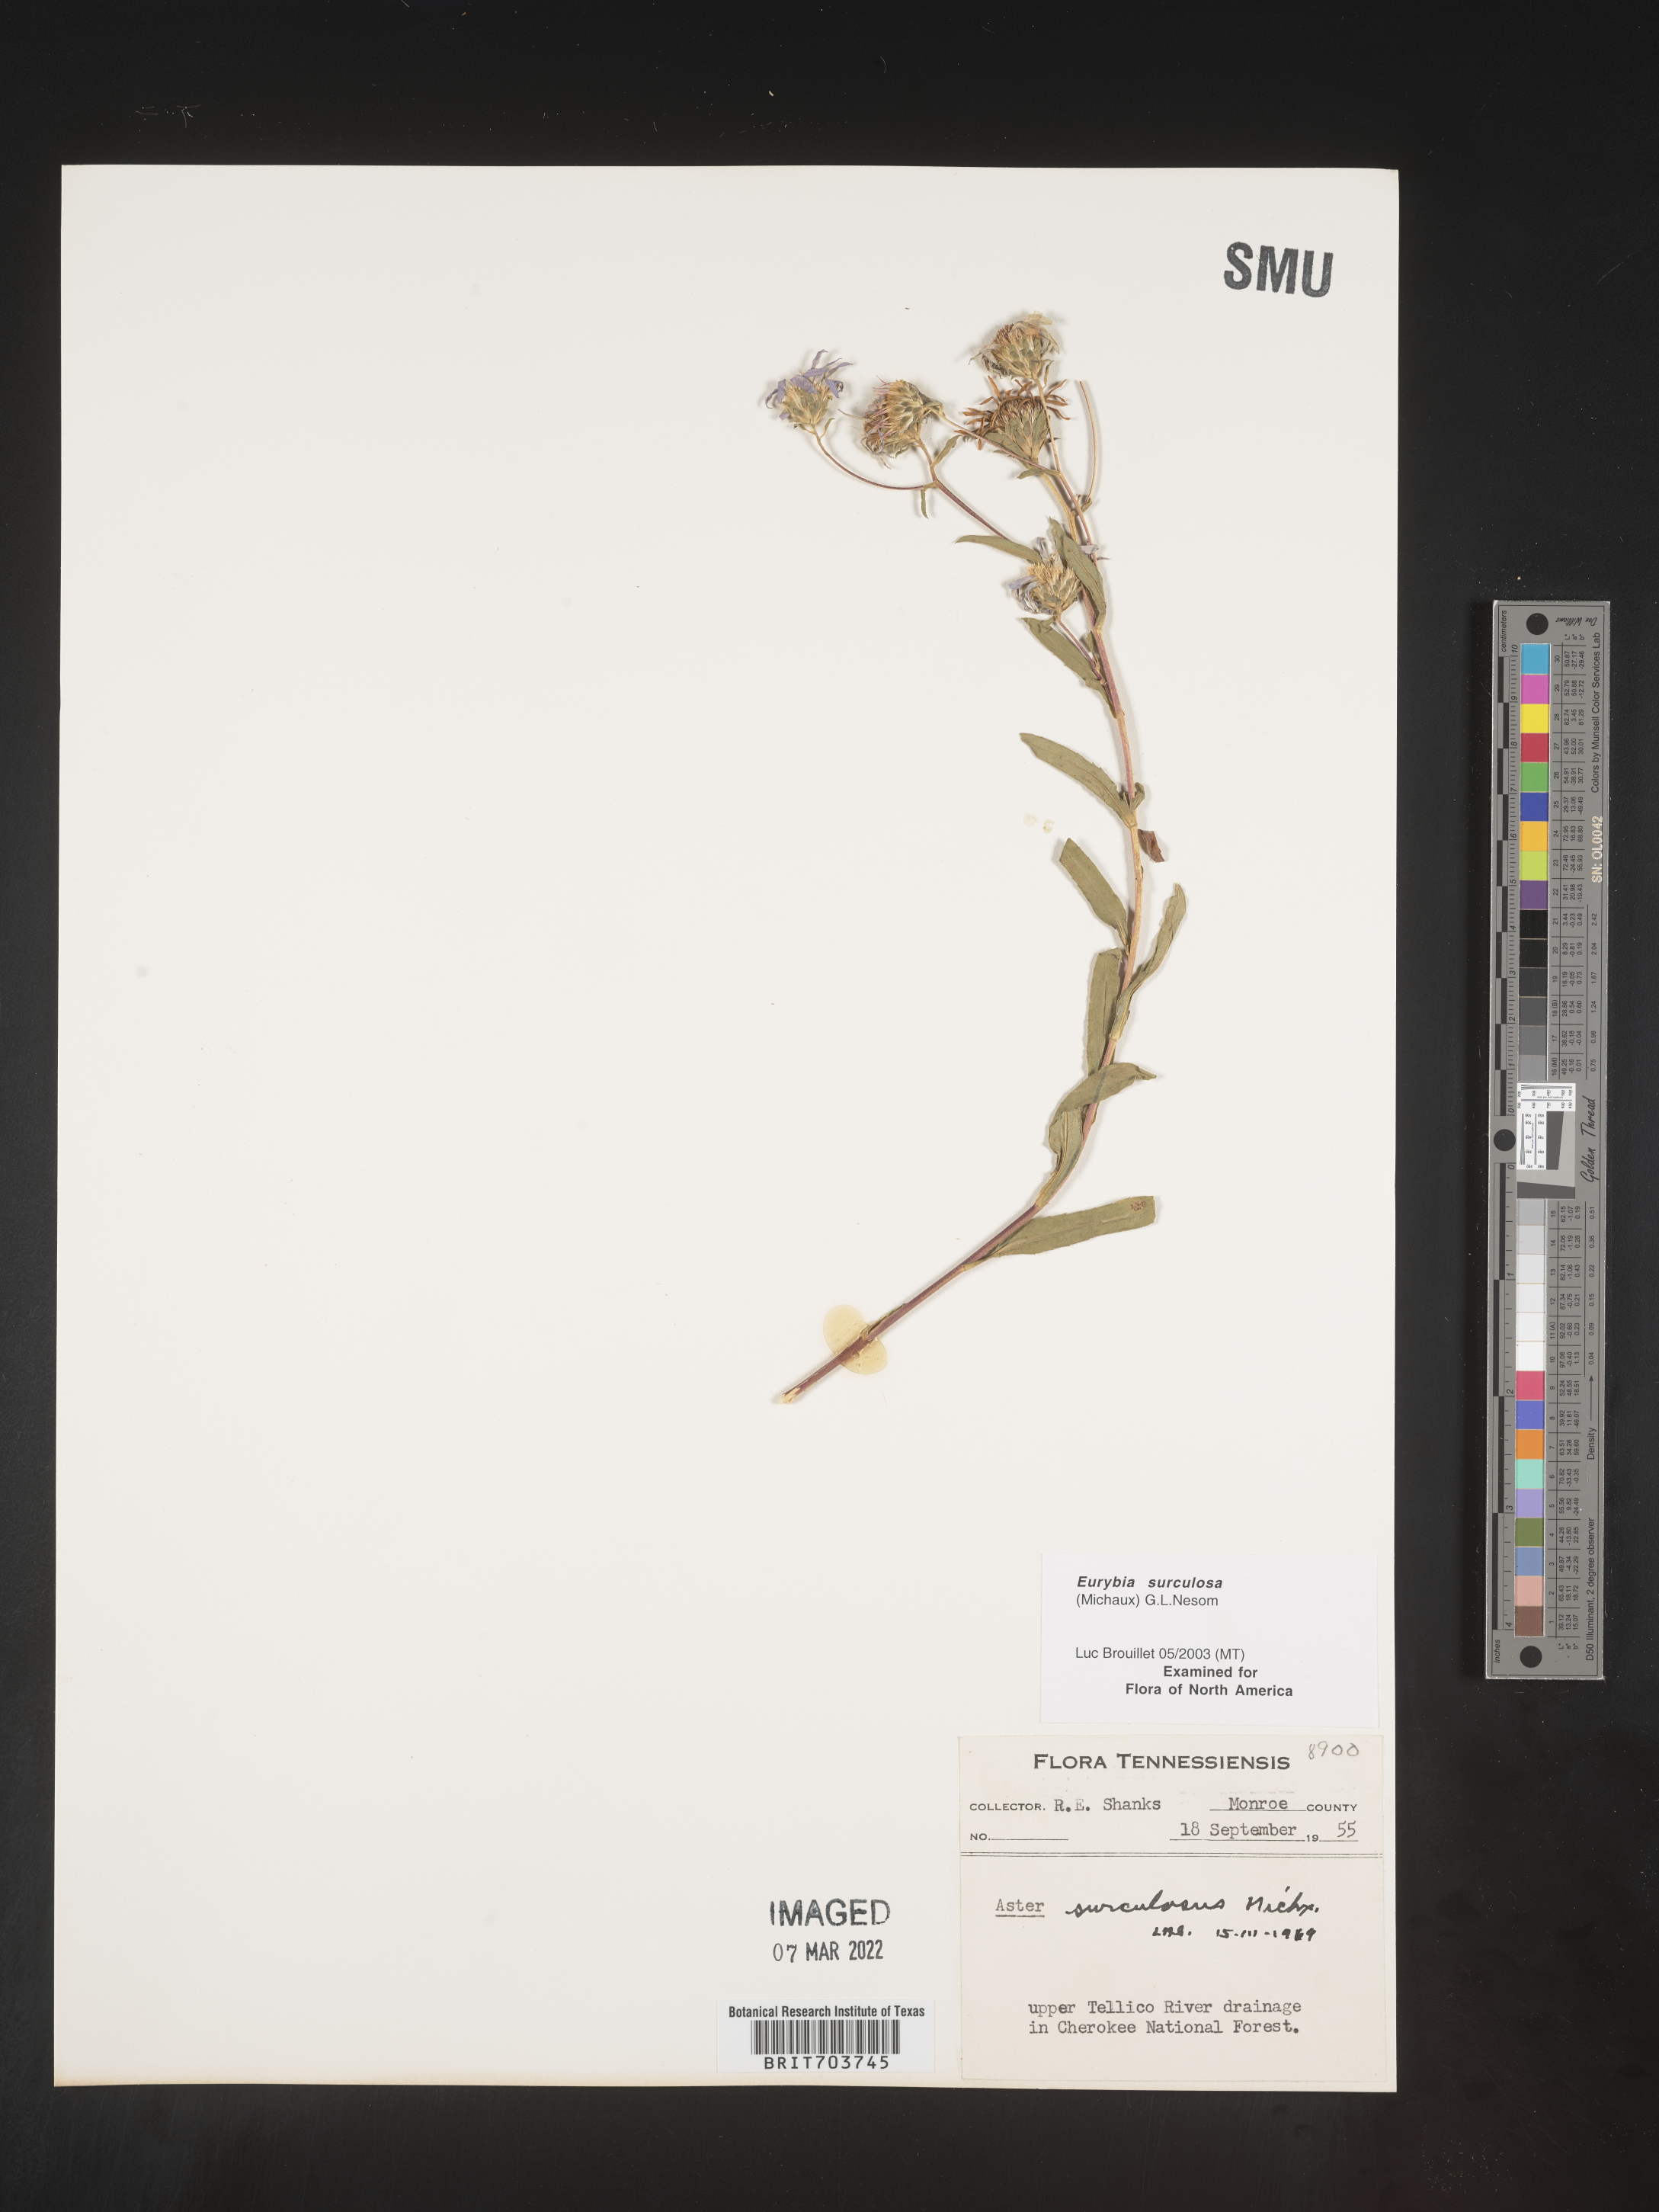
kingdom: Plantae
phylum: Tracheophyta
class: Magnoliopsida
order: Asterales
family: Asteraceae
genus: Eurybia
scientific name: Eurybia surculosa
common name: Creeping aster
